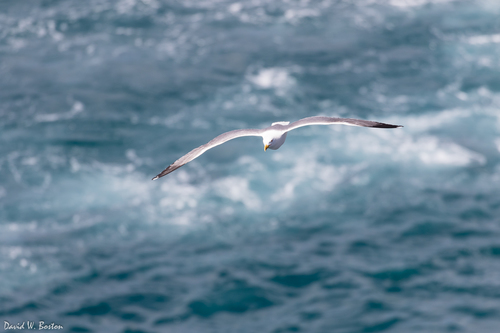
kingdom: Animalia
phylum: Chordata
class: Aves
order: Charadriiformes
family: Laridae
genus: Larus
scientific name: Larus michahellis
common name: Yellow-legged gull
